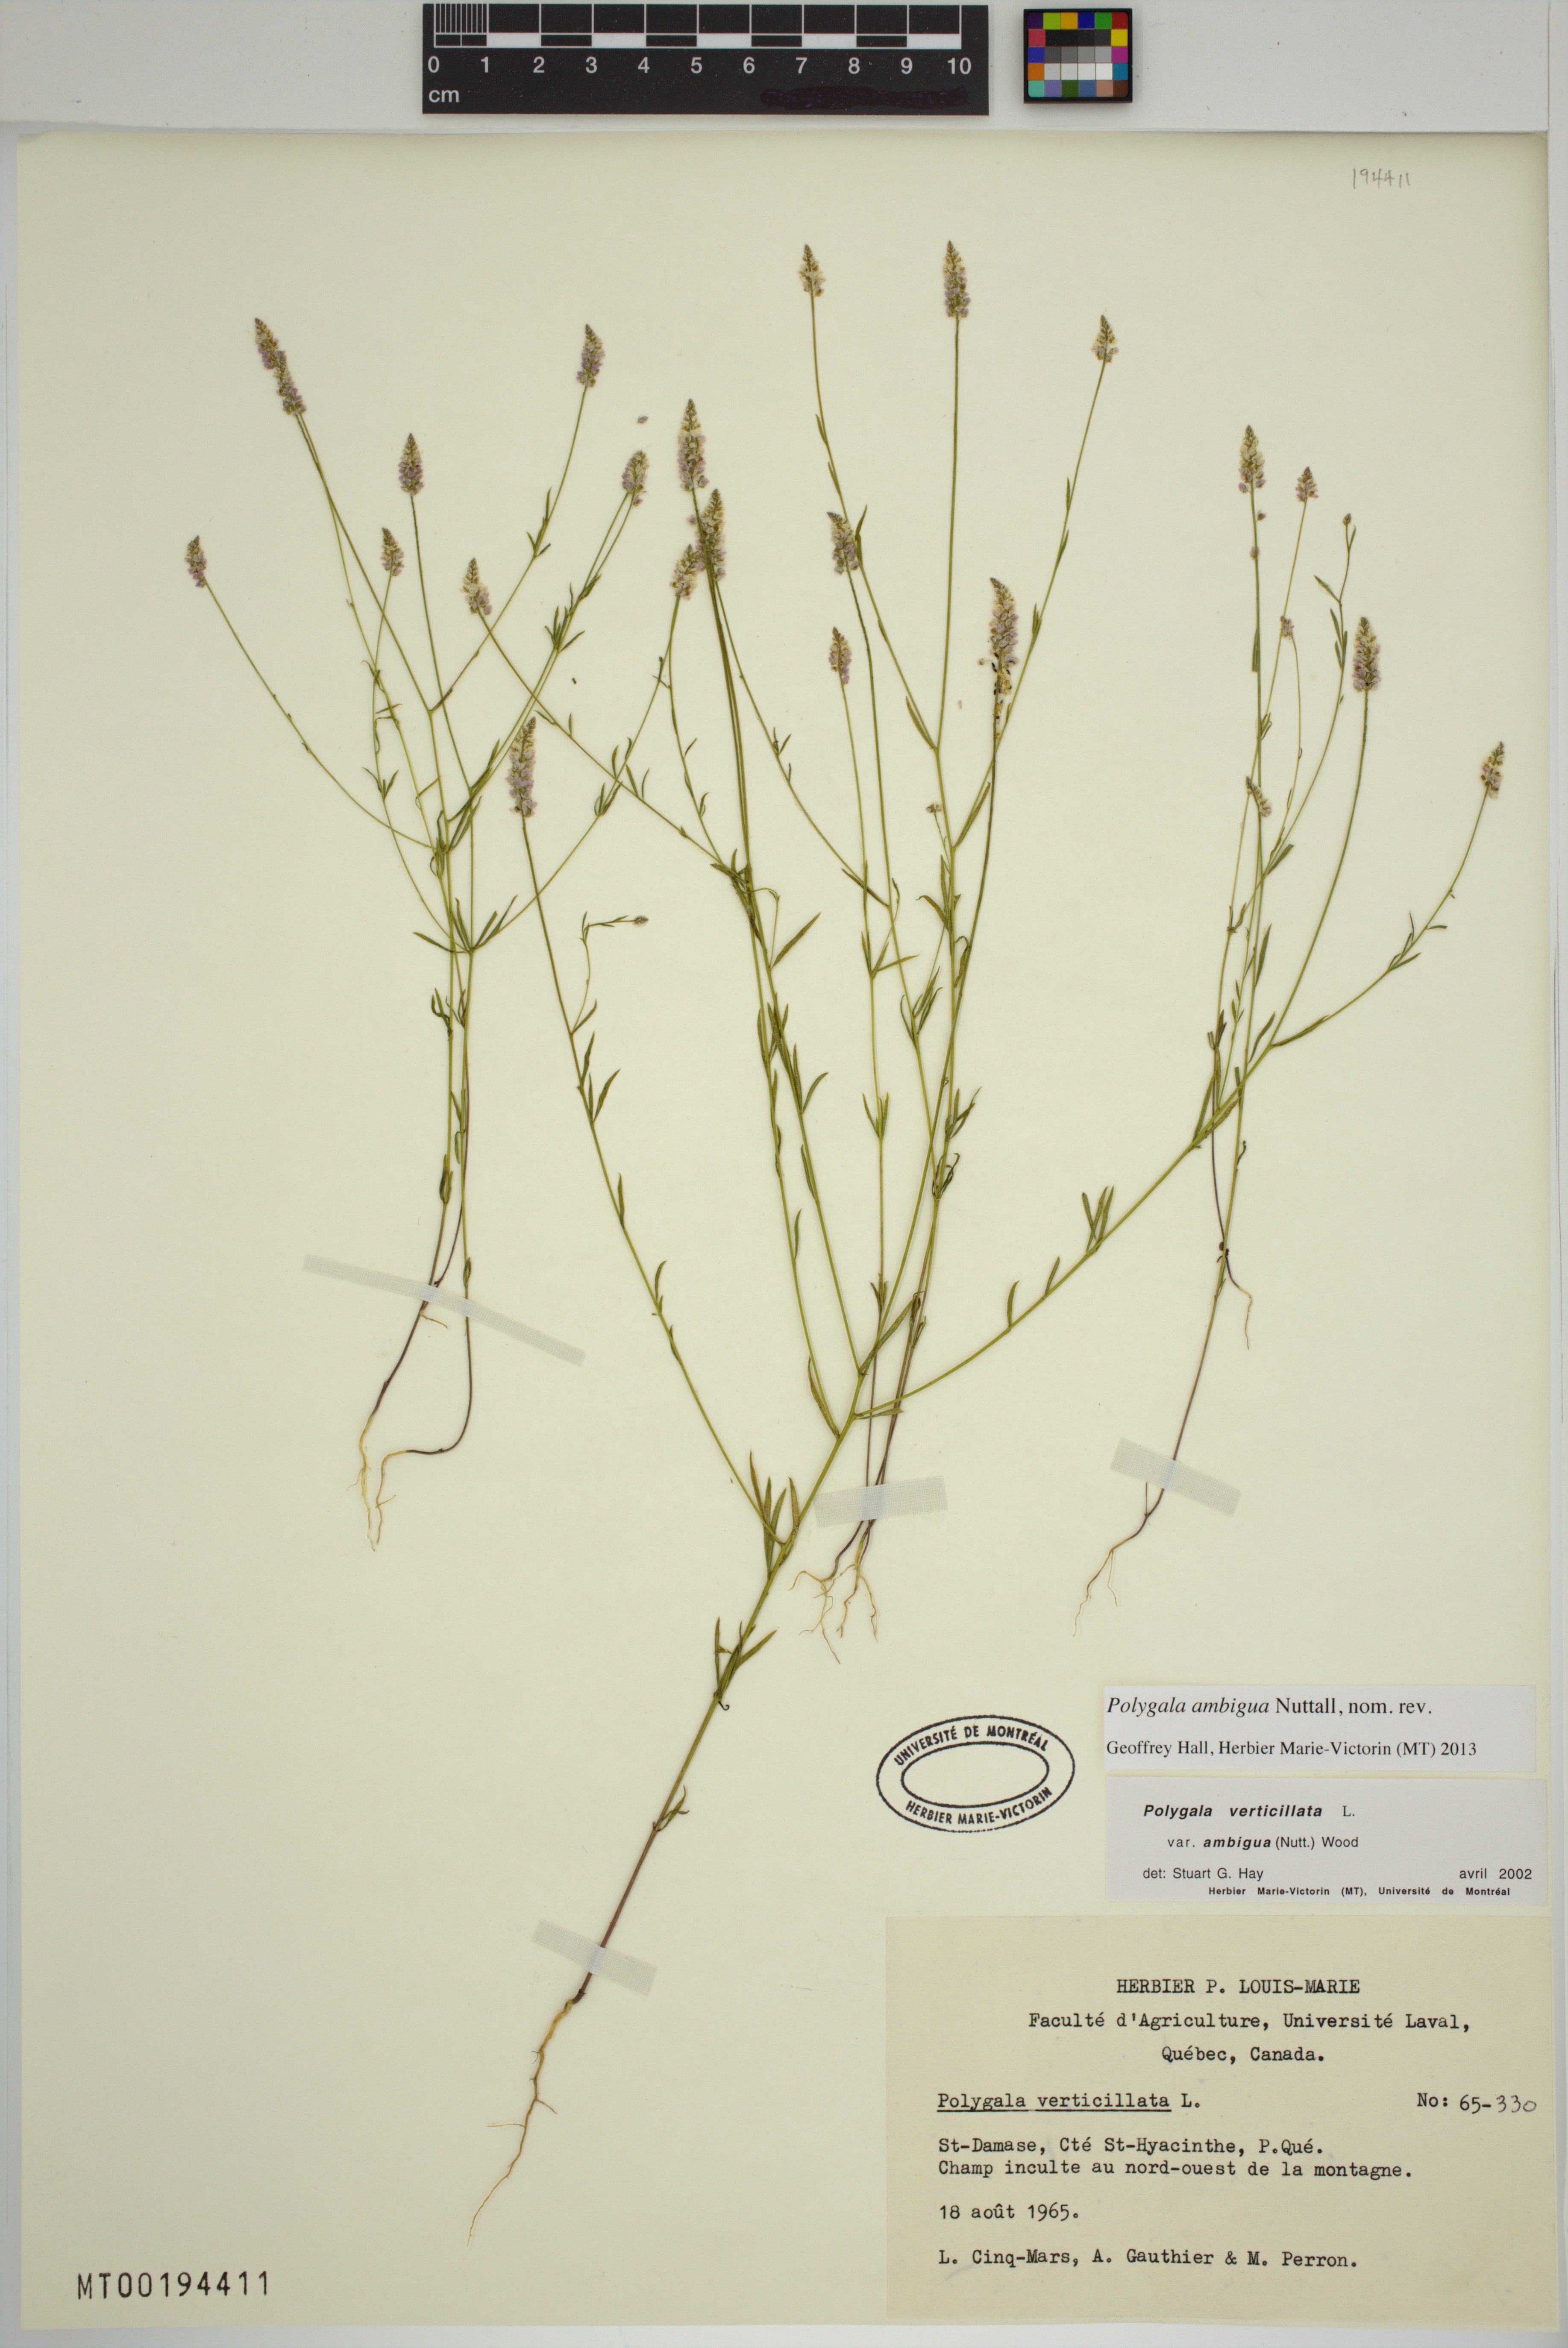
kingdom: Plantae
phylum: Tracheophyta
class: Magnoliopsida
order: Fabales
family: Polygalaceae
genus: Polygala
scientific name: Polygala ambigua
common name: Alternate milkwort
